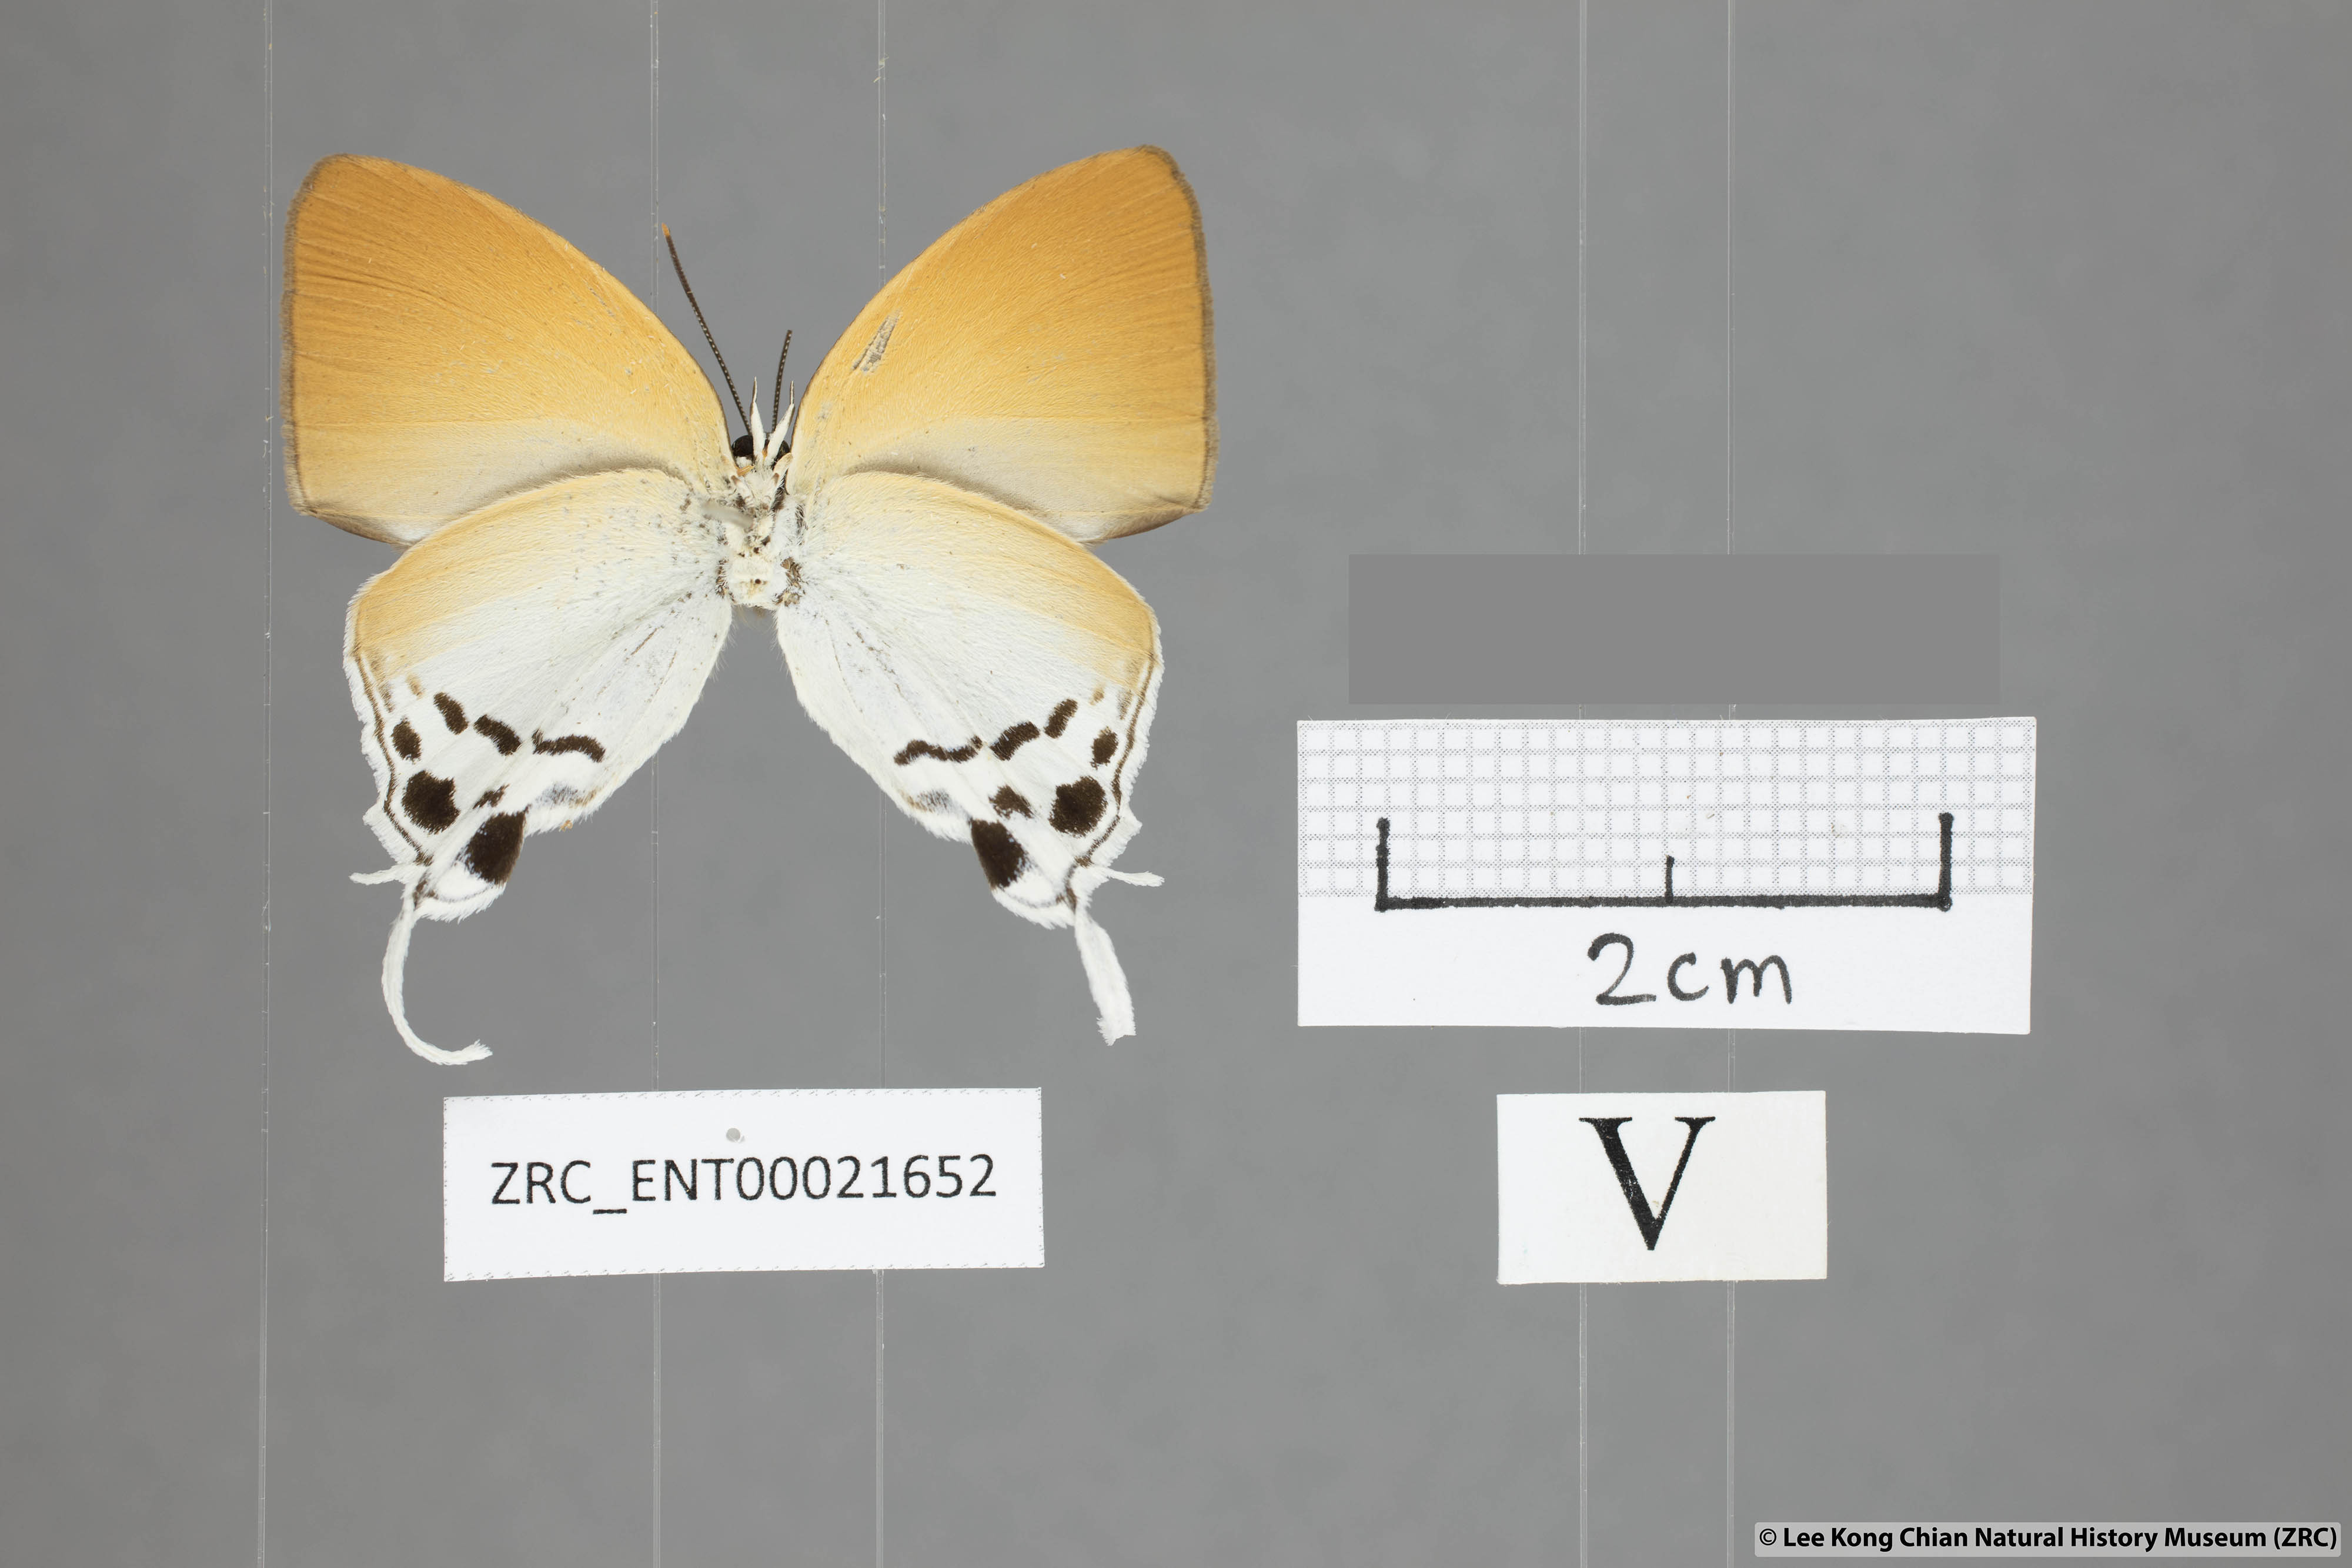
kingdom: Animalia
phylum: Arthropoda
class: Insecta
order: Lepidoptera
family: Lycaenidae
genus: Thrix
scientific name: Thrix
